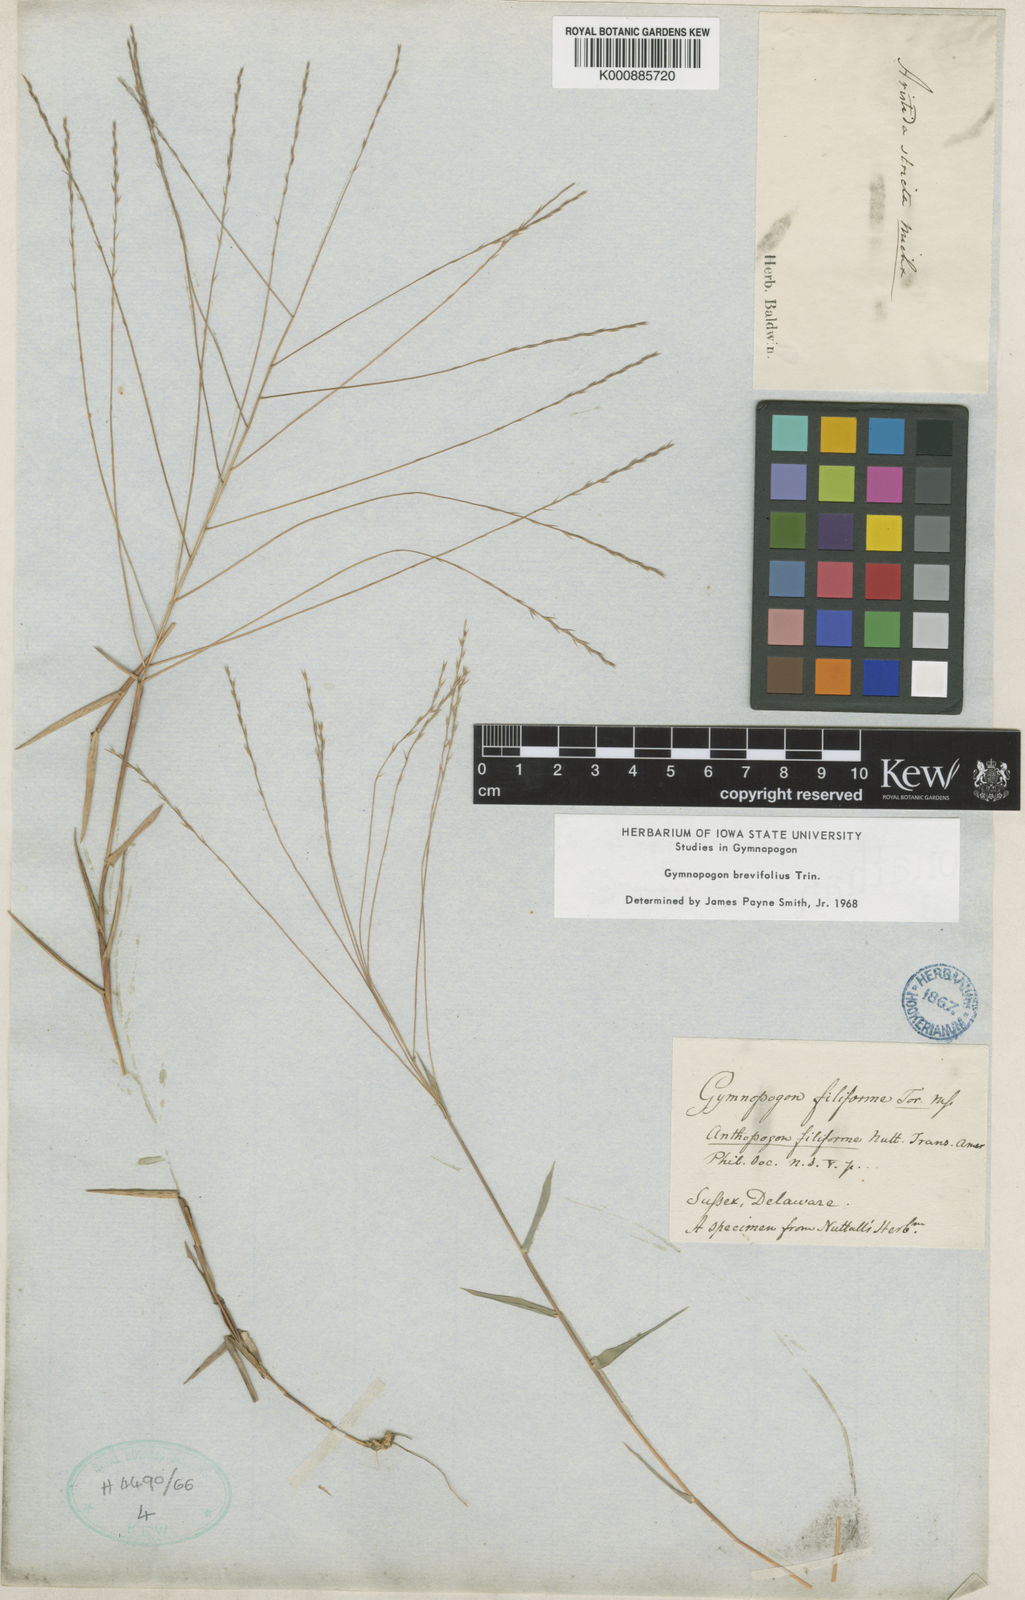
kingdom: Plantae
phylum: Tracheophyta
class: Liliopsida
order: Poales
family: Poaceae
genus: Gymnopogon
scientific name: Gymnopogon brevifolius
